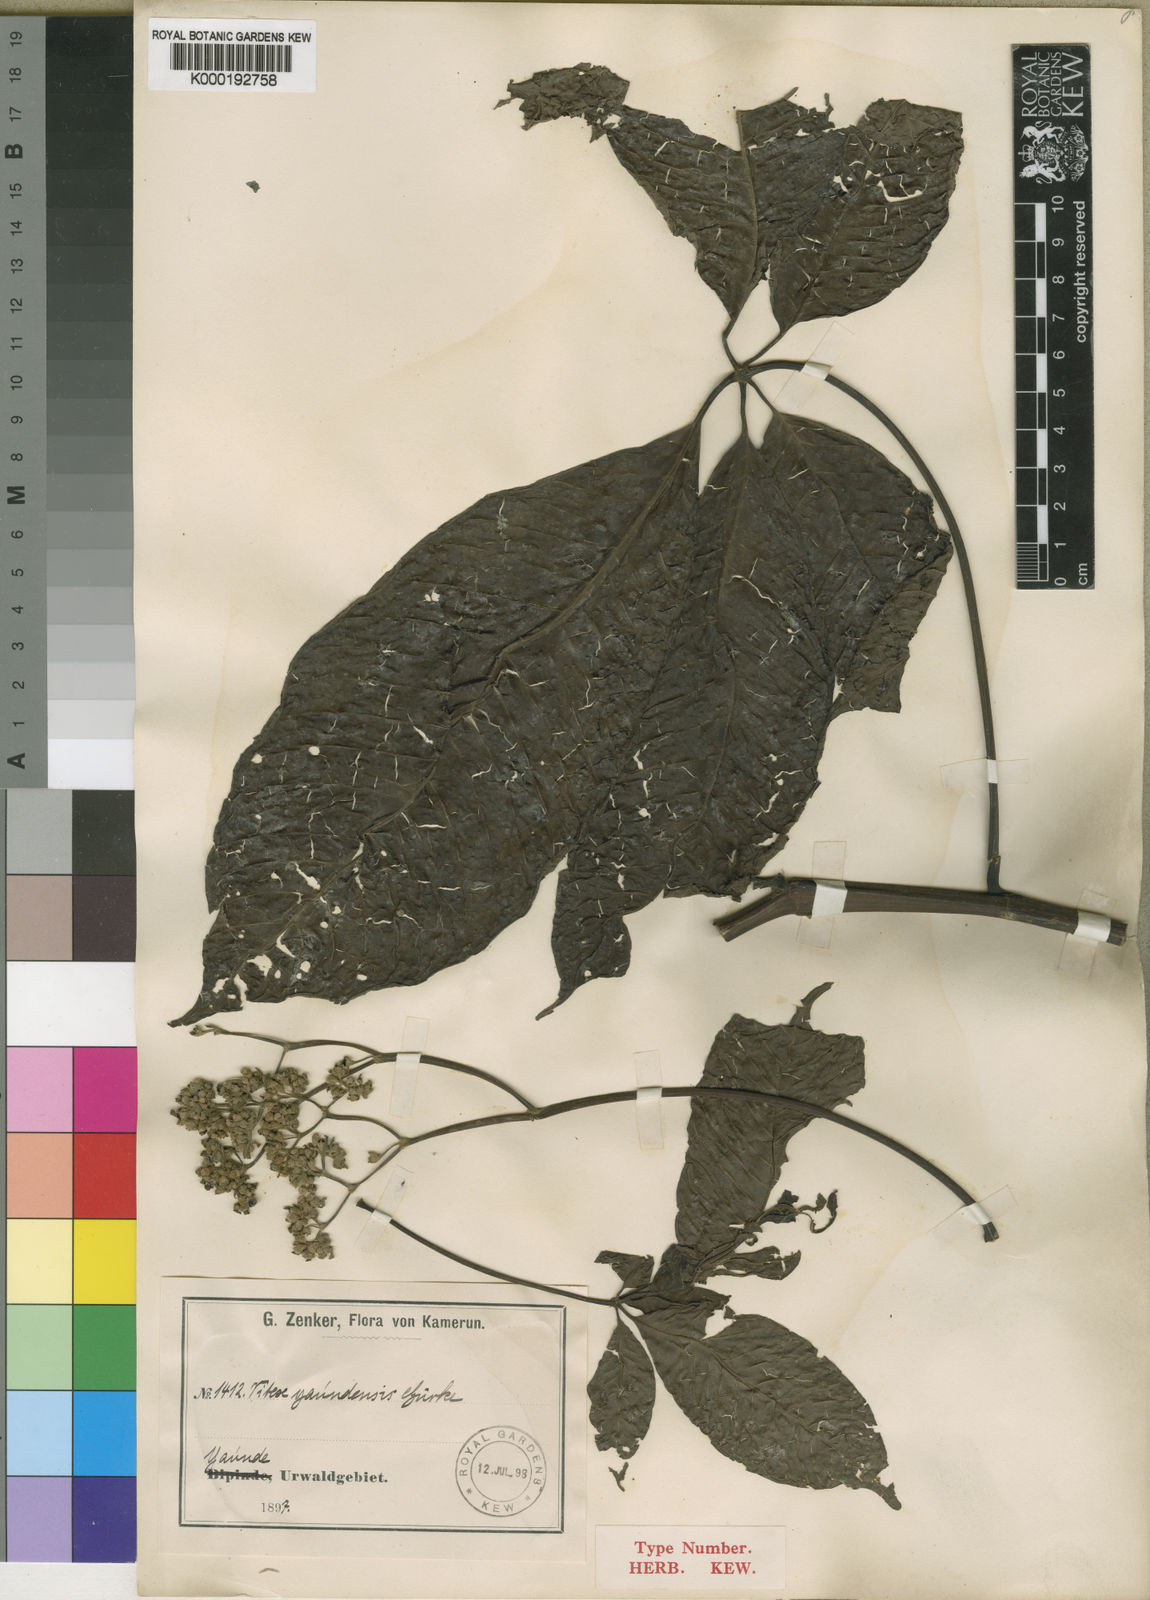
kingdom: Plantae
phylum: Tracheophyta
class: Magnoliopsida
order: Lamiales
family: Lamiaceae
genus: Vitex
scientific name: Vitex
